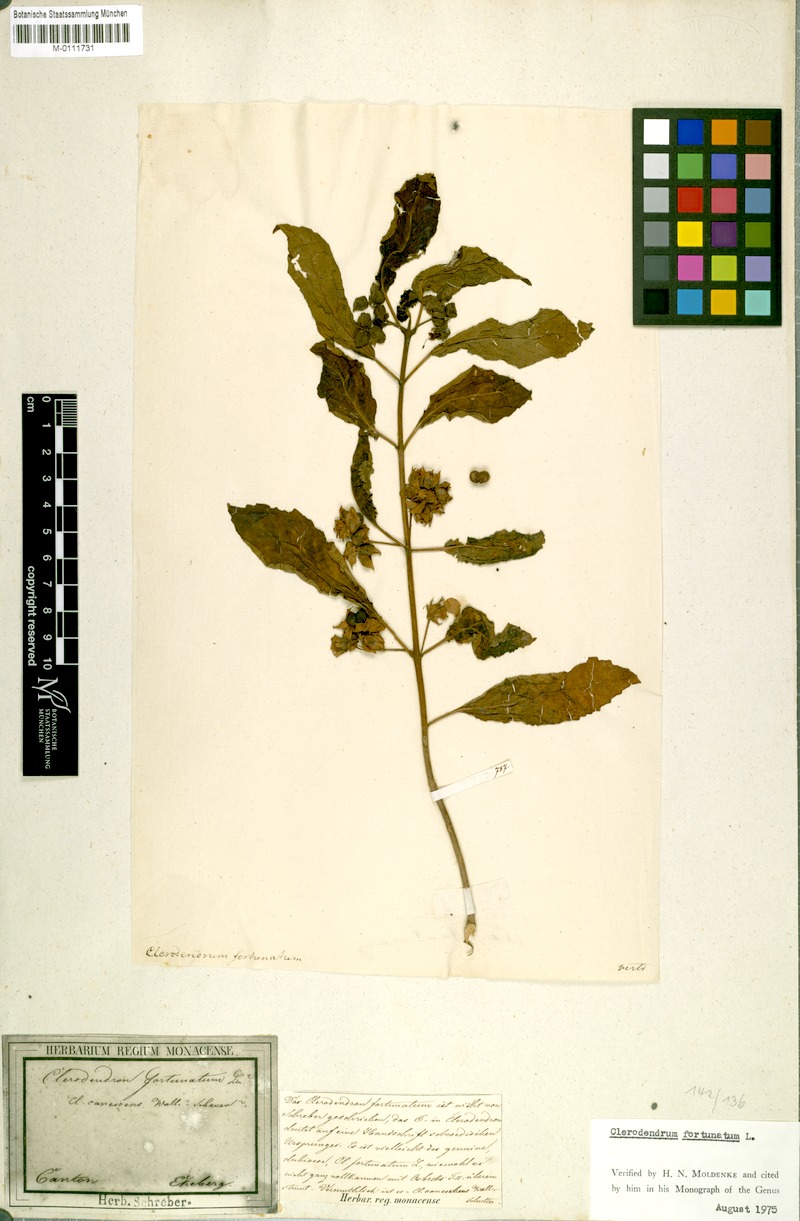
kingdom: Plantae
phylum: Tracheophyta
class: Magnoliopsida
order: Lamiales
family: Lamiaceae
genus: Clerodendrum
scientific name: Clerodendrum fortunatum
